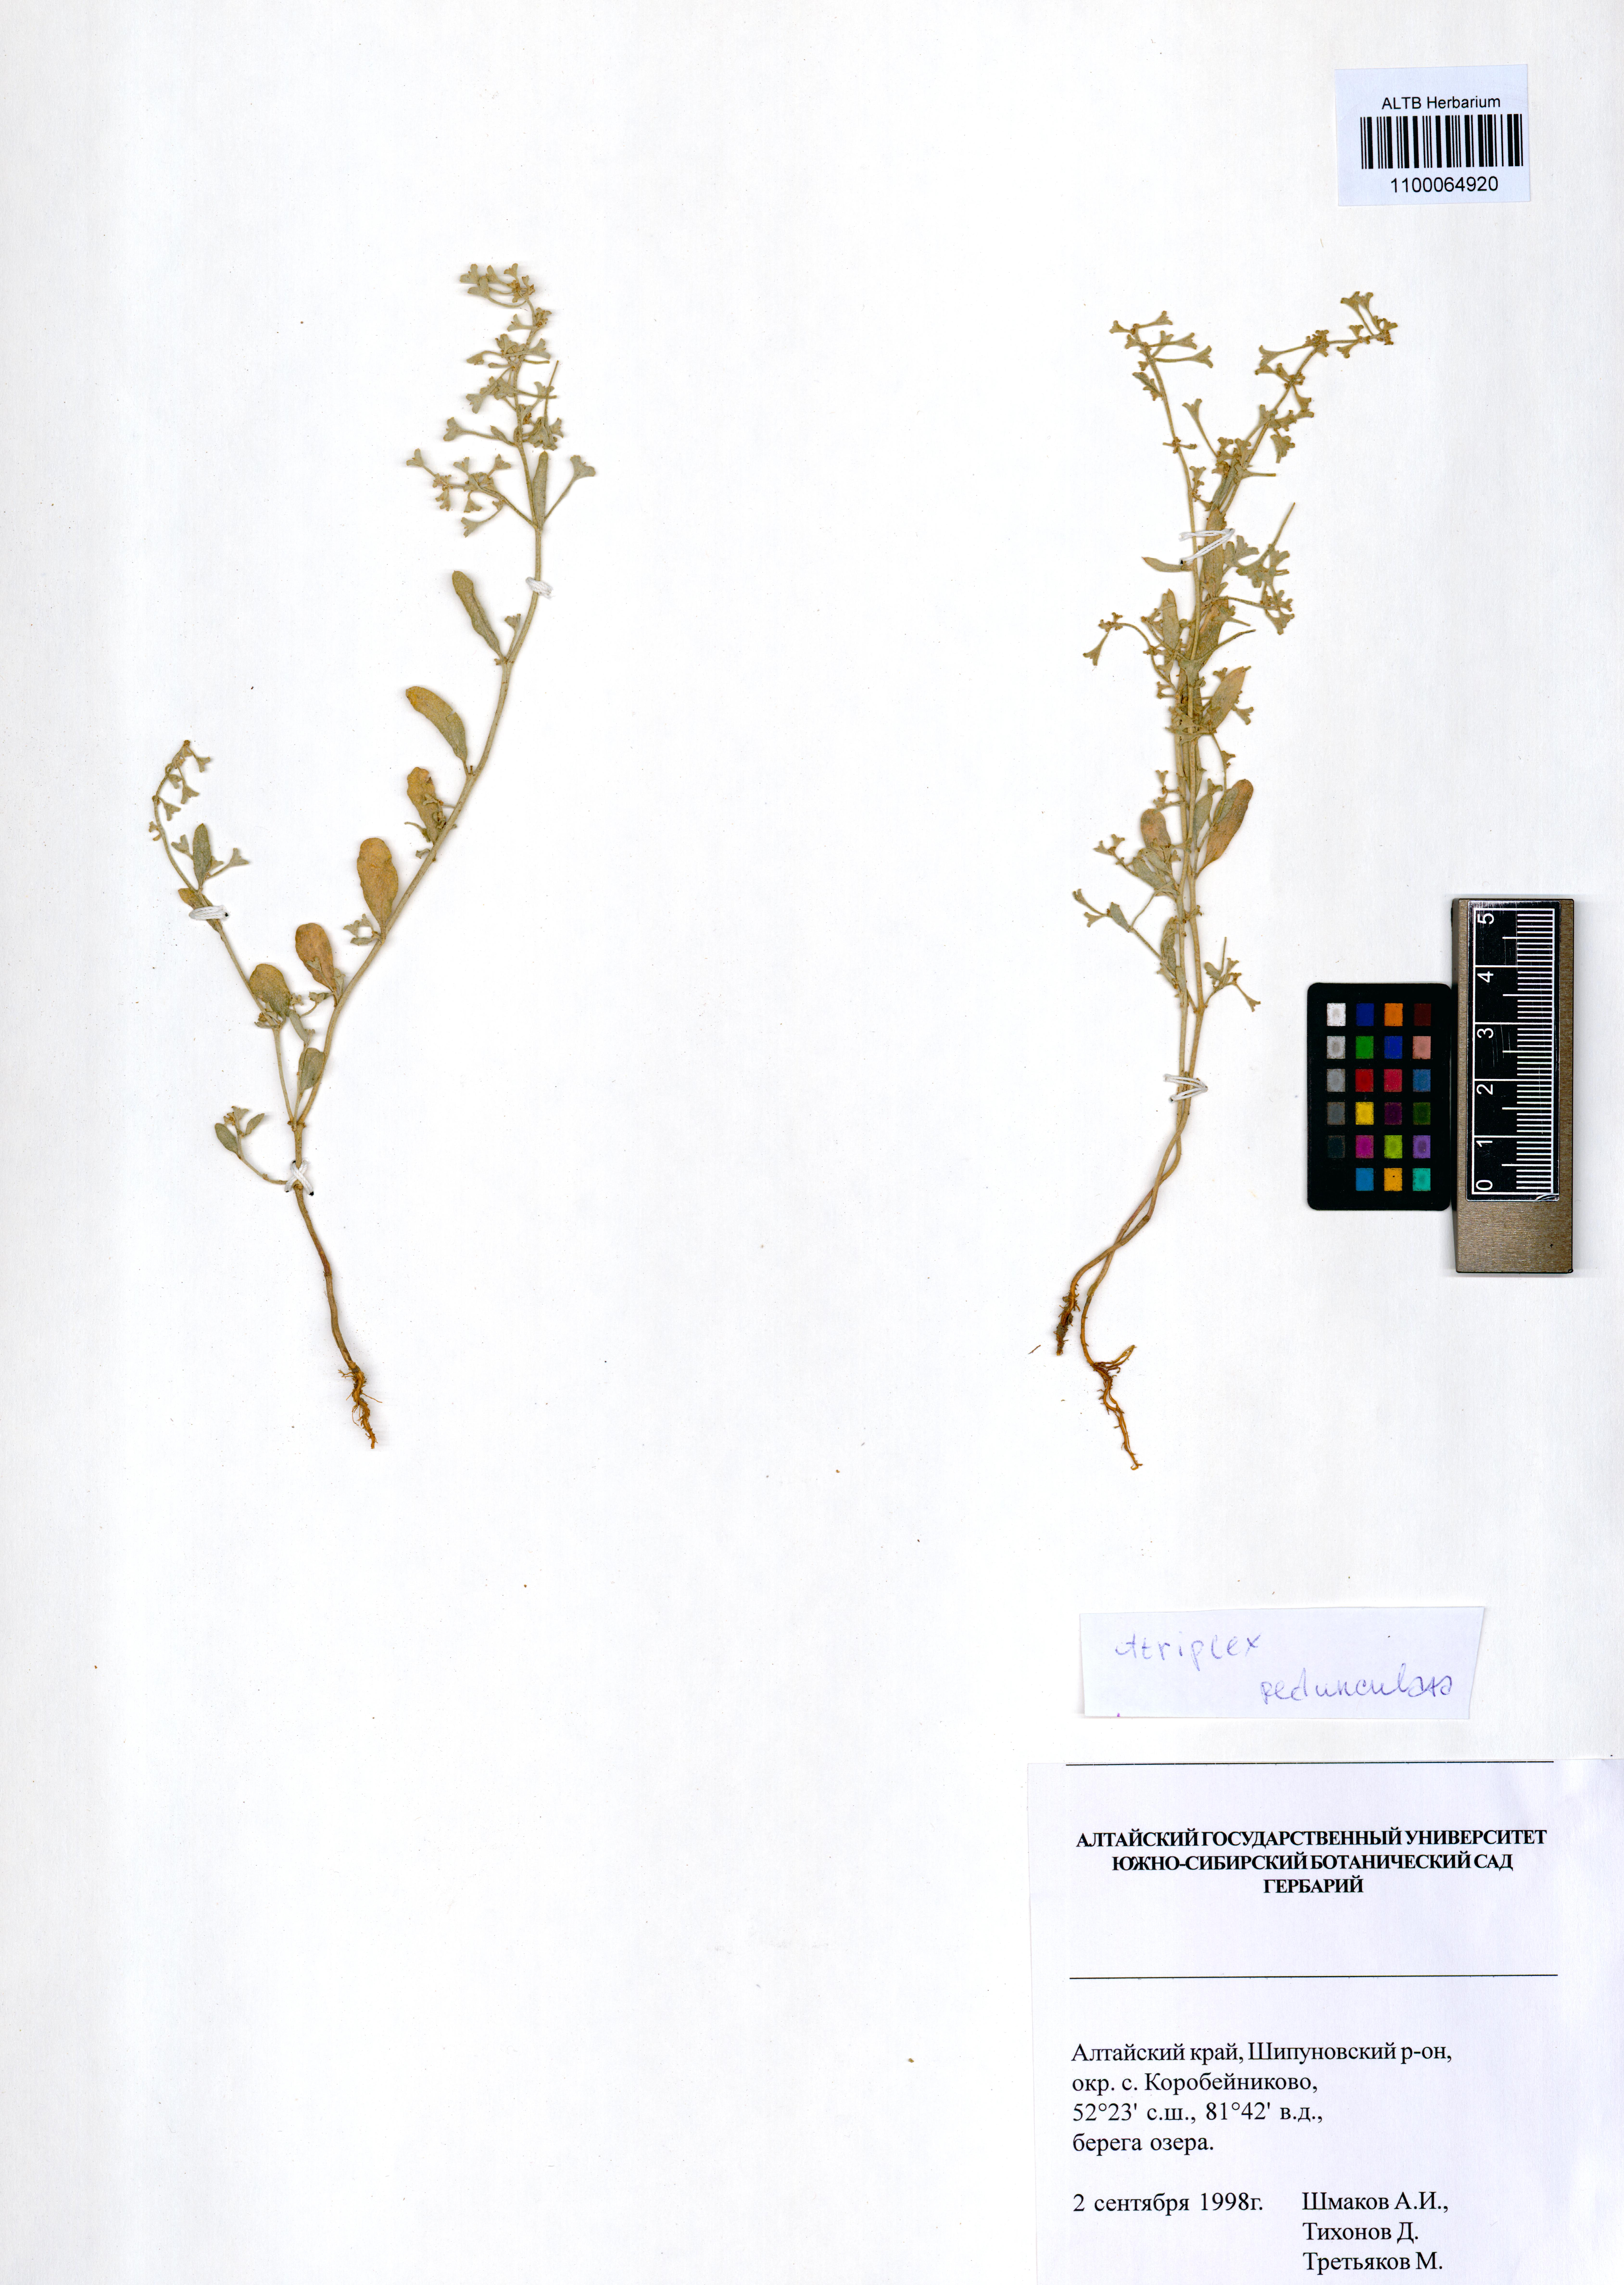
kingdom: Plantae
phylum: Tracheophyta
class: Magnoliopsida
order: Caryophyllales
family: Amaranthaceae
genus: Halimione
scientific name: Halimione pedunculata
